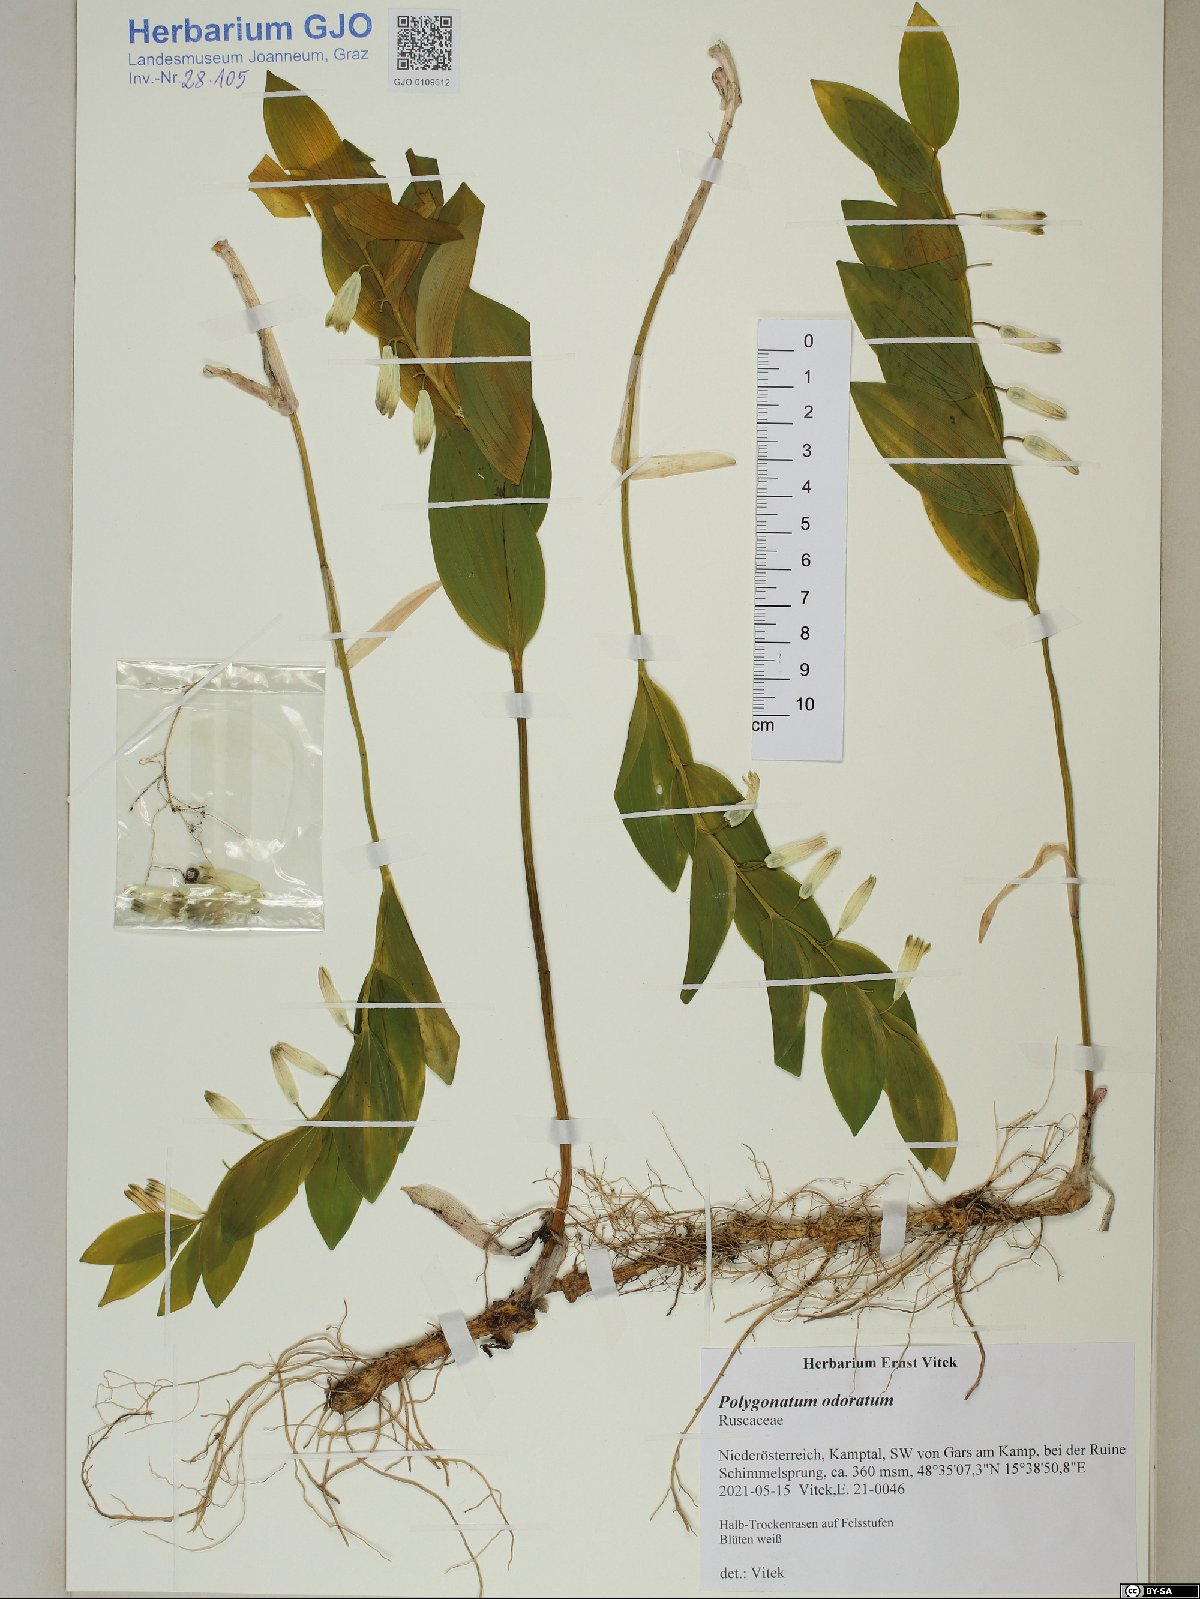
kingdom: Plantae
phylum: Tracheophyta
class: Liliopsida
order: Asparagales
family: Asparagaceae
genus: Polygonatum
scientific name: Polygonatum odoratum
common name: Angular solomon's-seal
